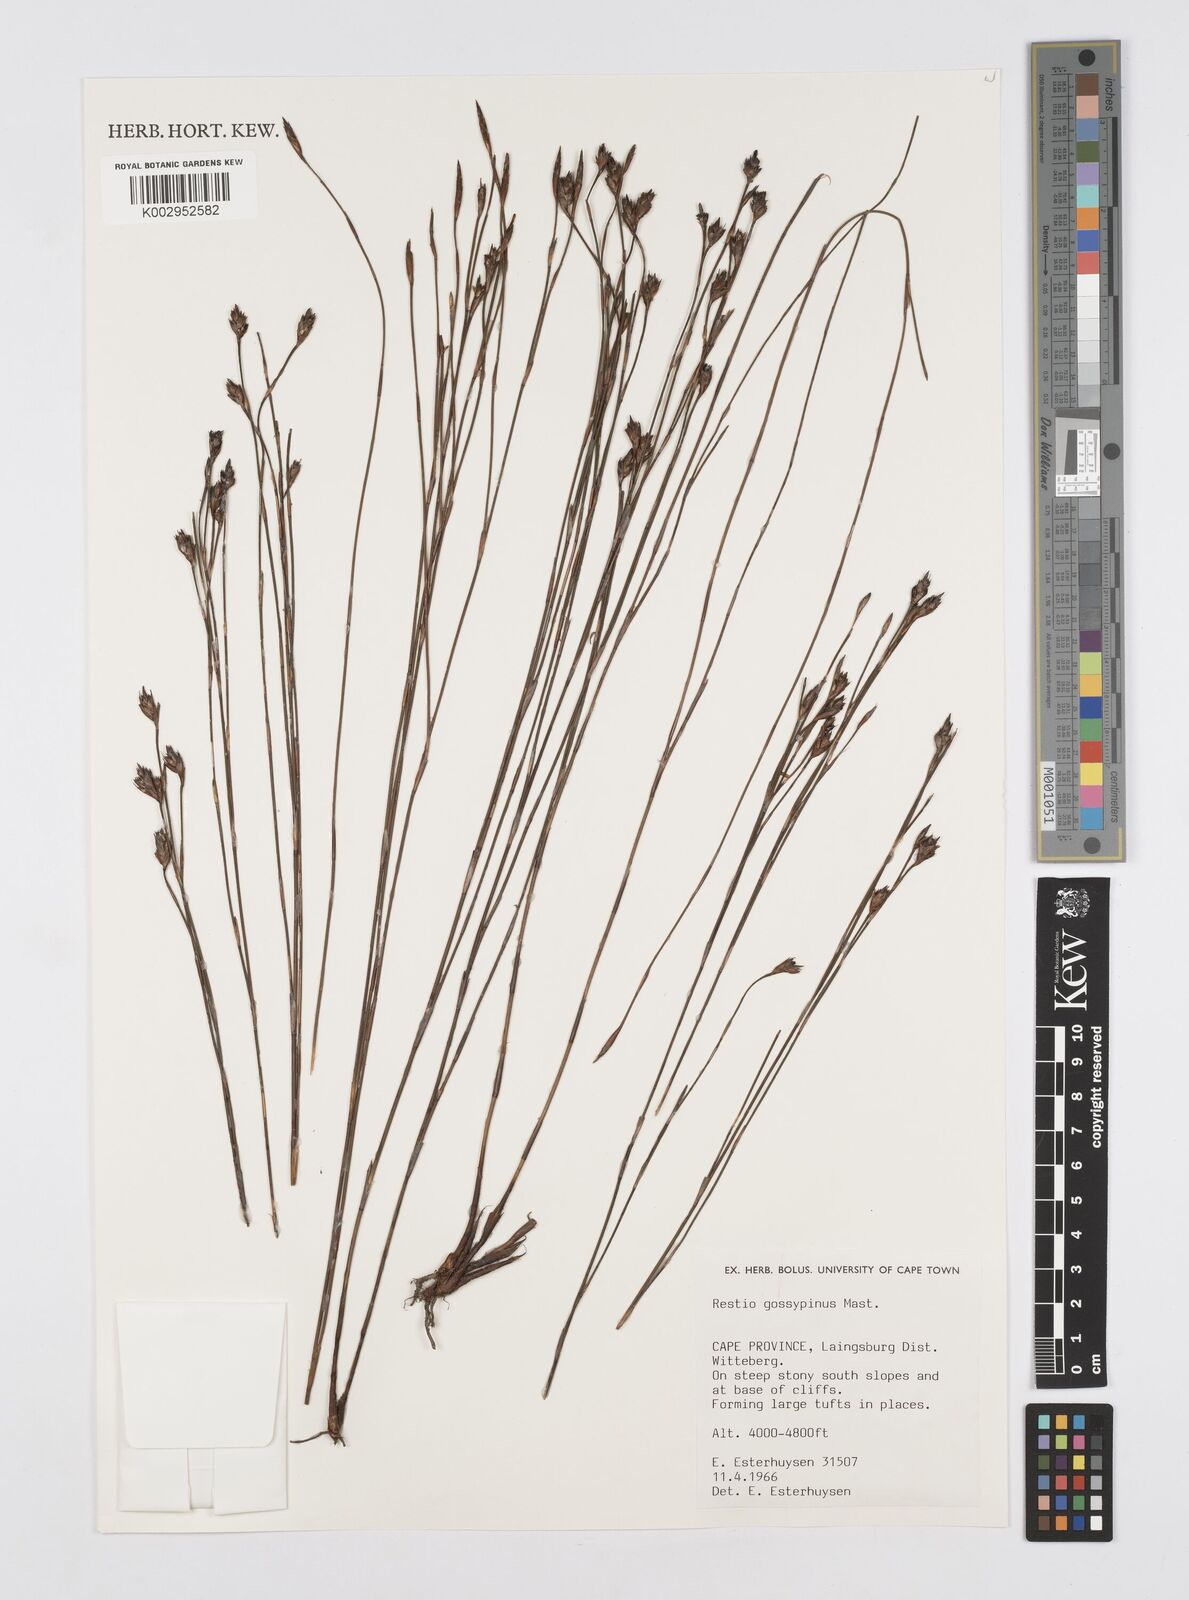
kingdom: Plantae
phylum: Tracheophyta
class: Liliopsida
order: Poales
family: Restionaceae
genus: Restio
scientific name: Restio gossypinus
